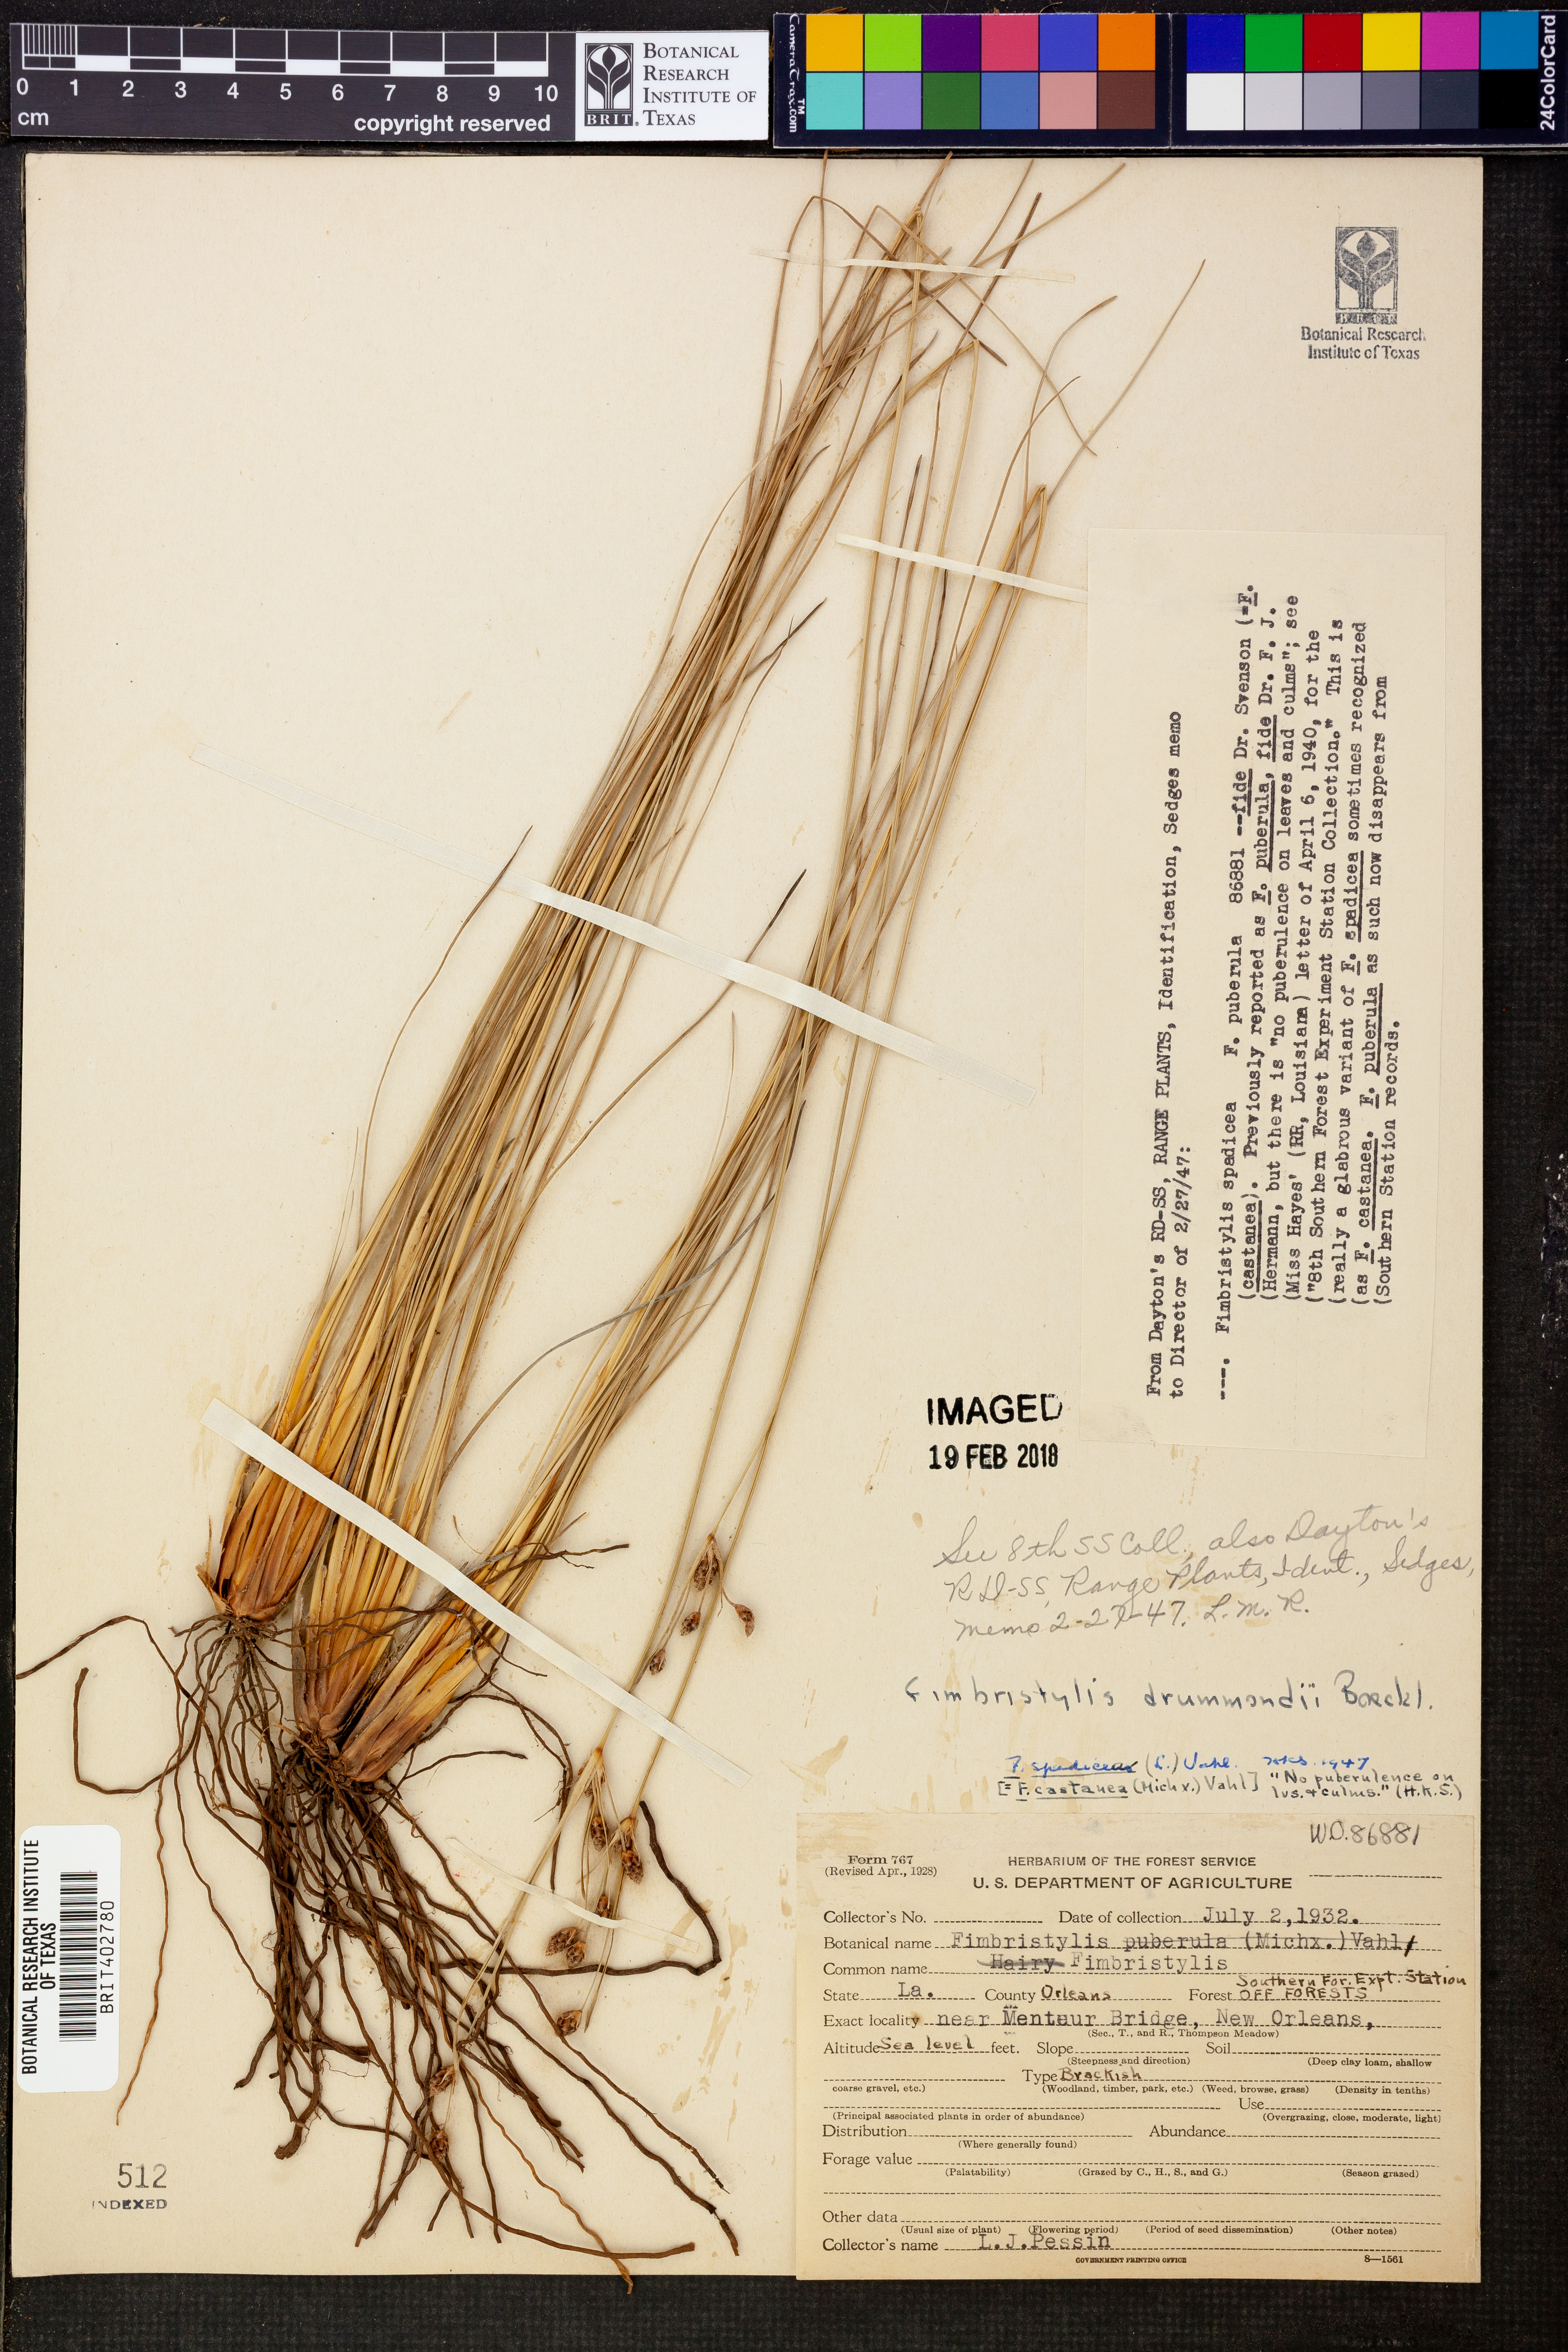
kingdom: Plantae
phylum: Tracheophyta
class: Liliopsida
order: Poales
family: Cyperaceae
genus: Fimbristylis
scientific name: Fimbristylis puberula
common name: Hairy fimbristylis
